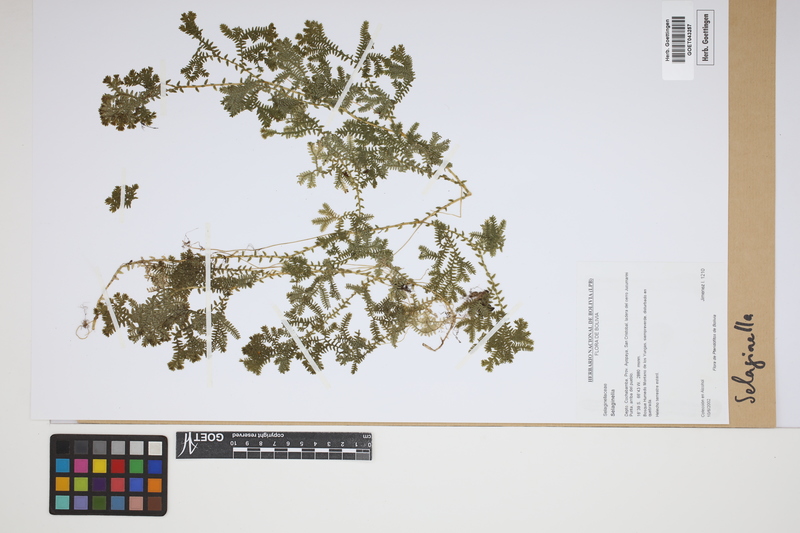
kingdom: Plantae
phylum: Tracheophyta
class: Lycopodiopsida
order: Selaginellales
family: Selaginellaceae
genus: Selaginella
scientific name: Selaginella
